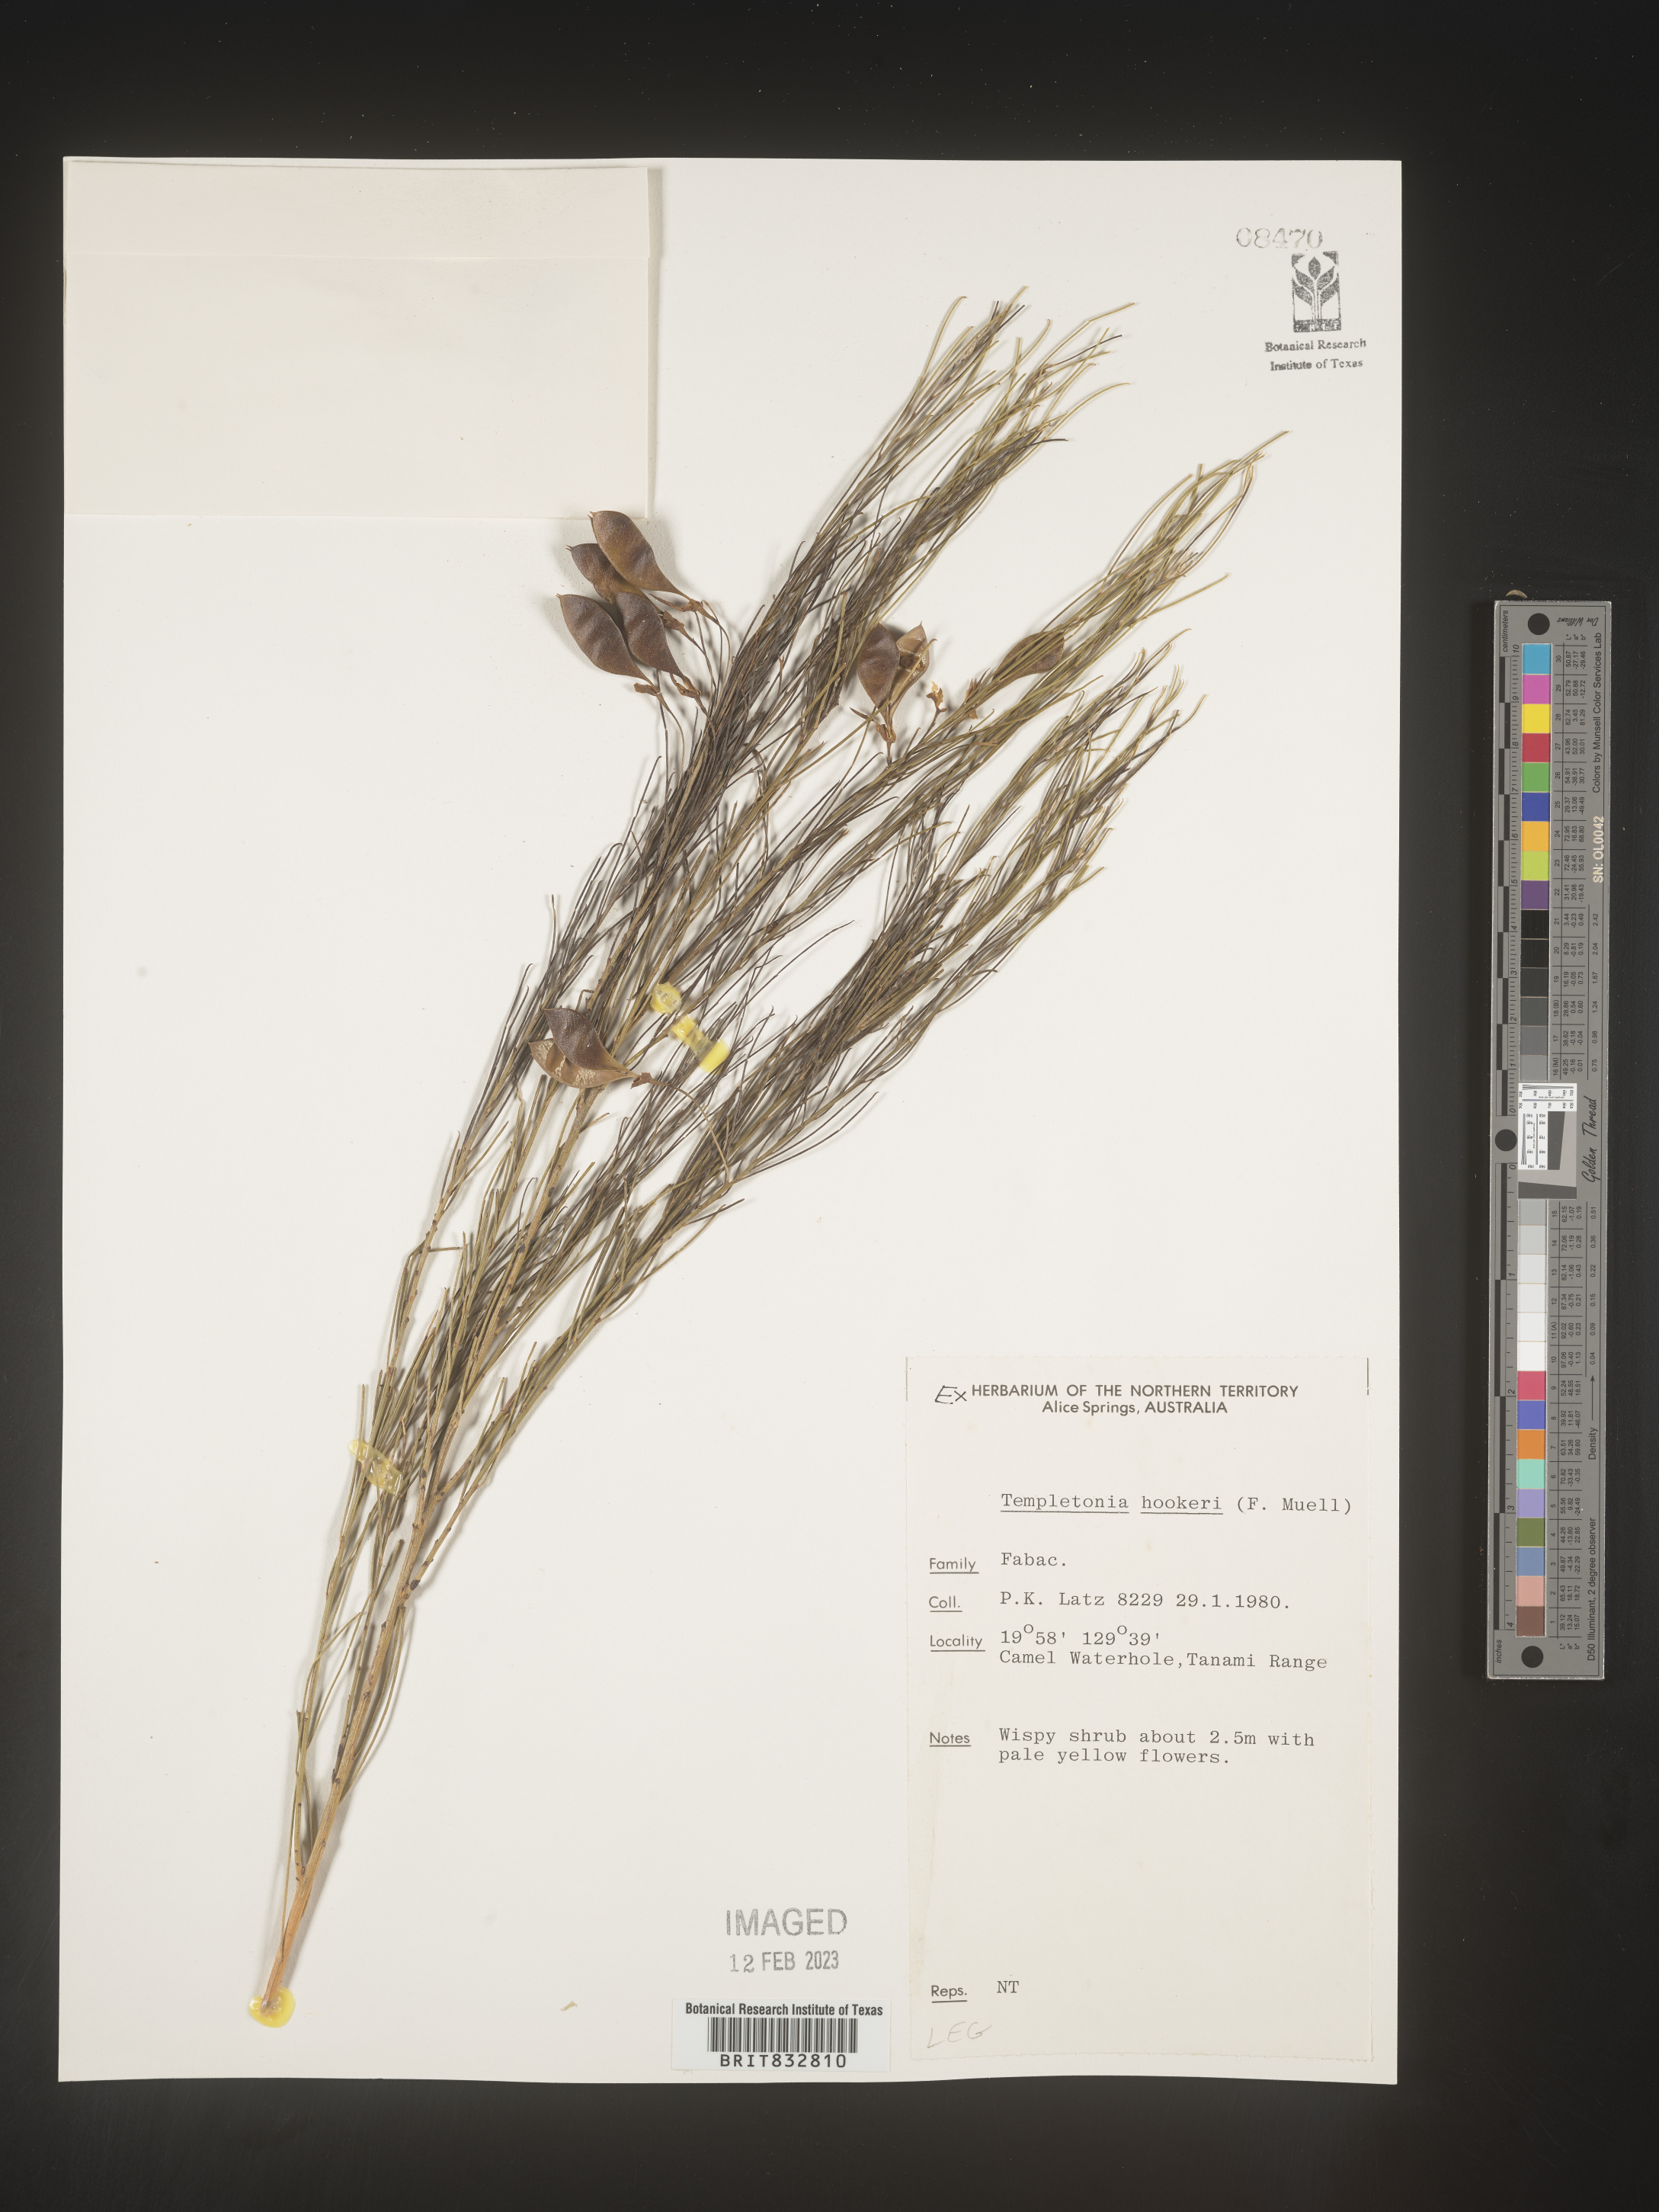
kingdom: Plantae
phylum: Tracheophyta
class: Magnoliopsida
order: Fabales
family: Fabaceae
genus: Templetonia
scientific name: Templetonia
